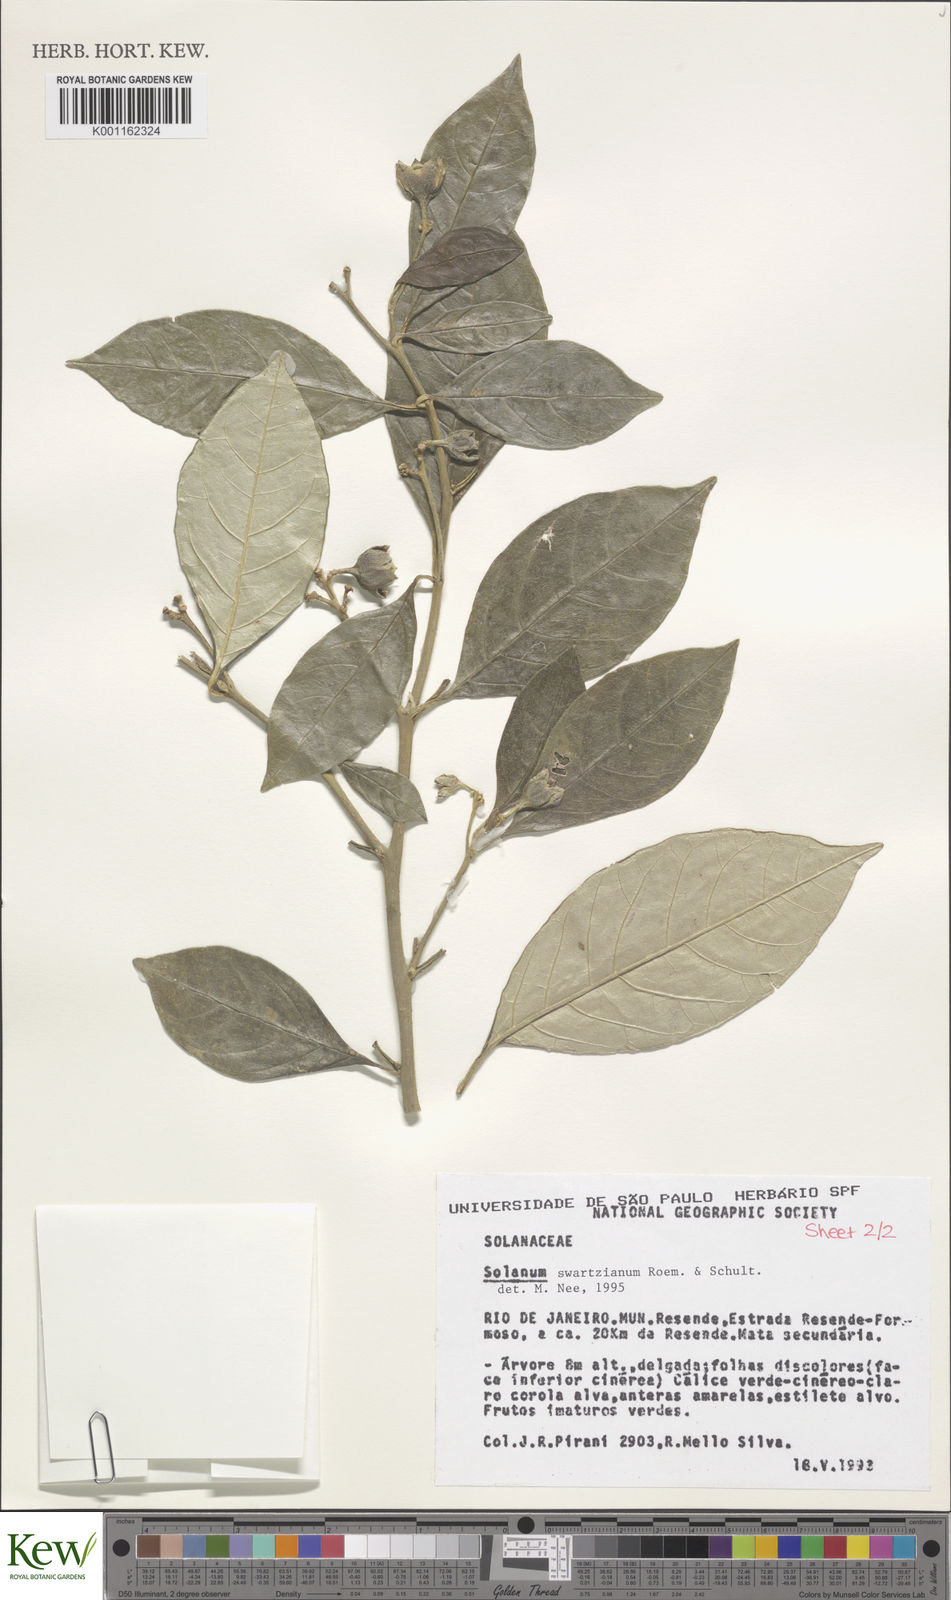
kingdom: Plantae
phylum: Tracheophyta
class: Magnoliopsida
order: Solanales
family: Solanaceae
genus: Solanum
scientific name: Solanum swartzianum
